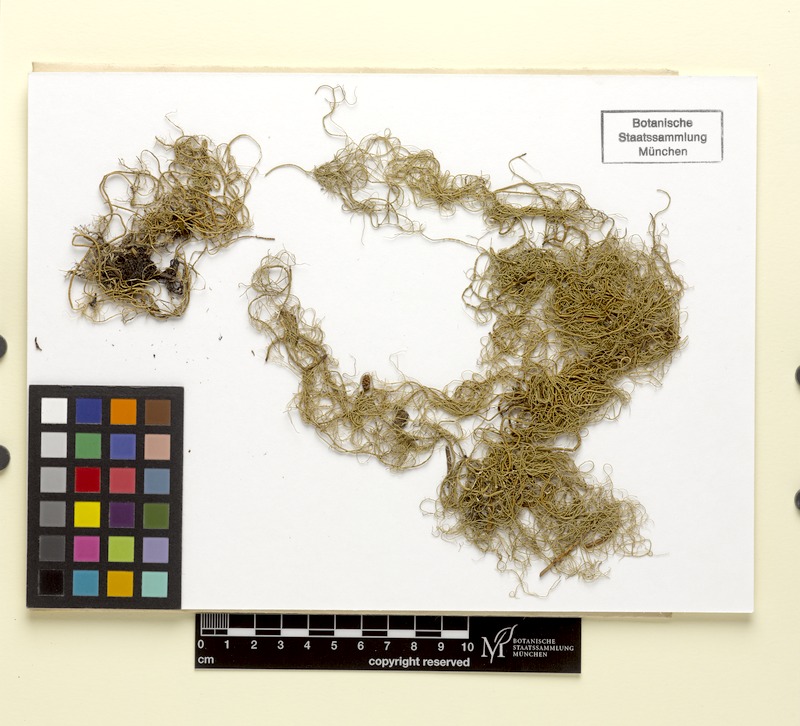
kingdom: Fungi
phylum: Ascomycota
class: Lecanoromycetes
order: Lecanorales
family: Parmeliaceae
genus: Usnea
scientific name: Usnea
